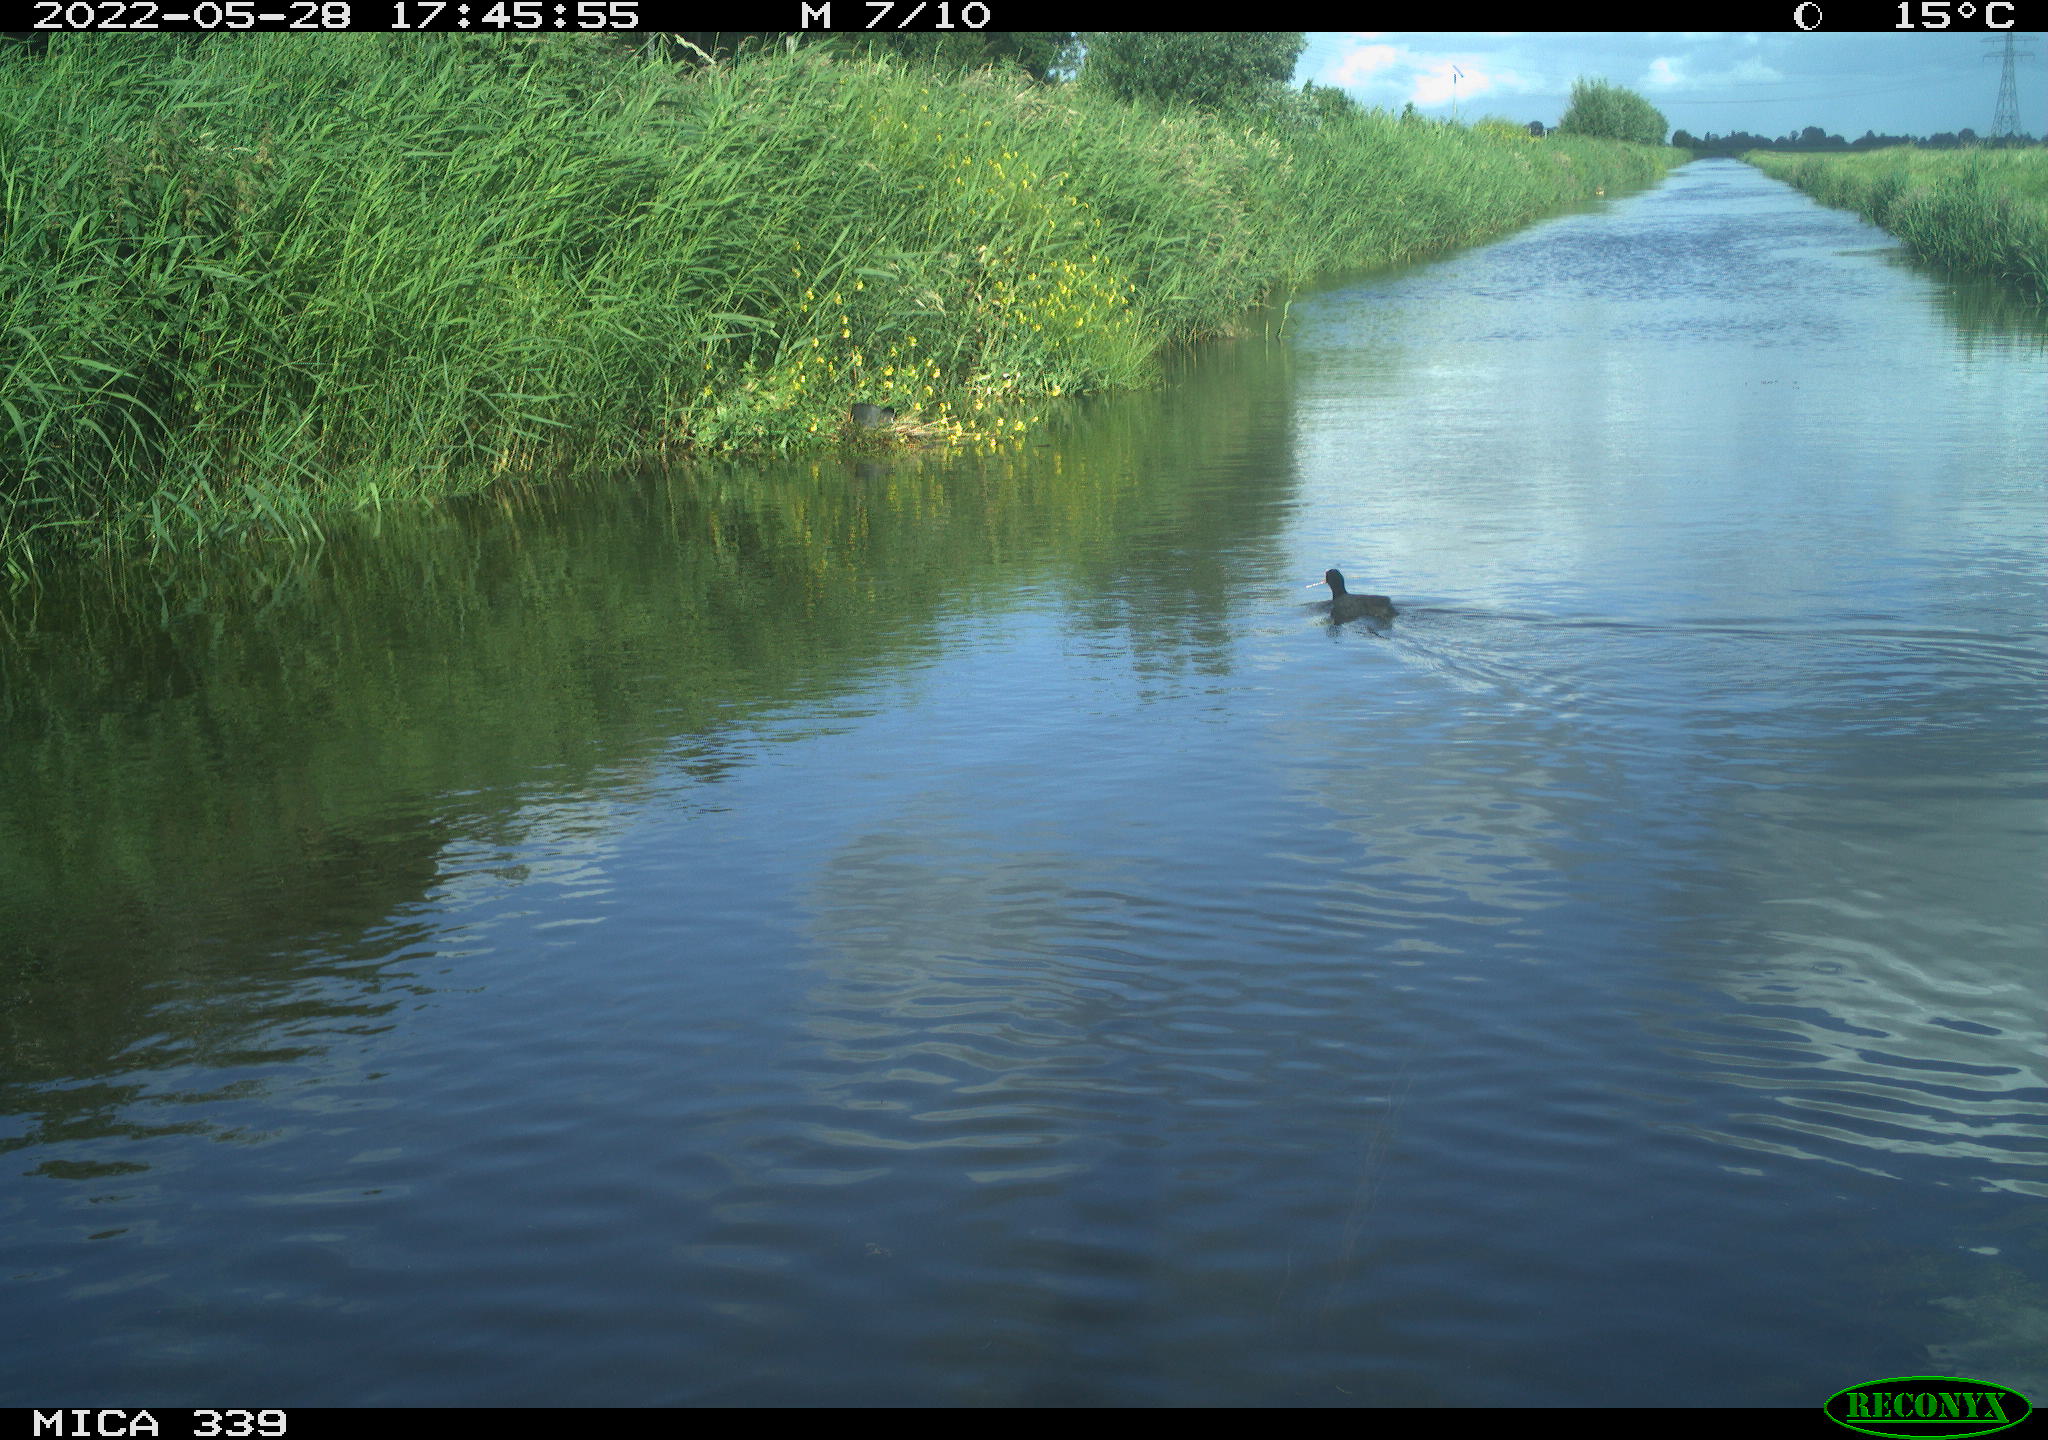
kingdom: Animalia
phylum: Chordata
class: Aves
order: Gruiformes
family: Rallidae
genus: Fulica
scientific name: Fulica atra
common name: Eurasian coot
